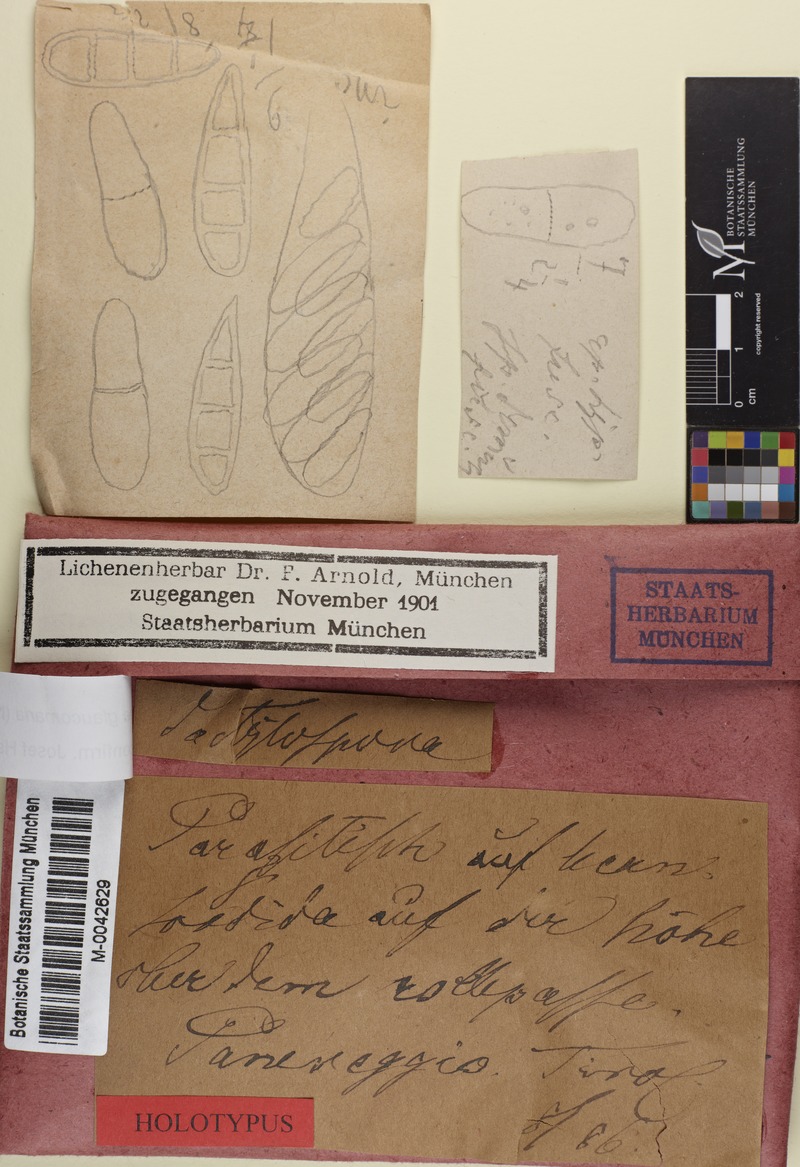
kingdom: Fungi
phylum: Ascomycota
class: Arthoniomycetes
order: Arthoniales
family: Roccellaceae
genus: Phacographa
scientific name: Phacographa glaucomaria
